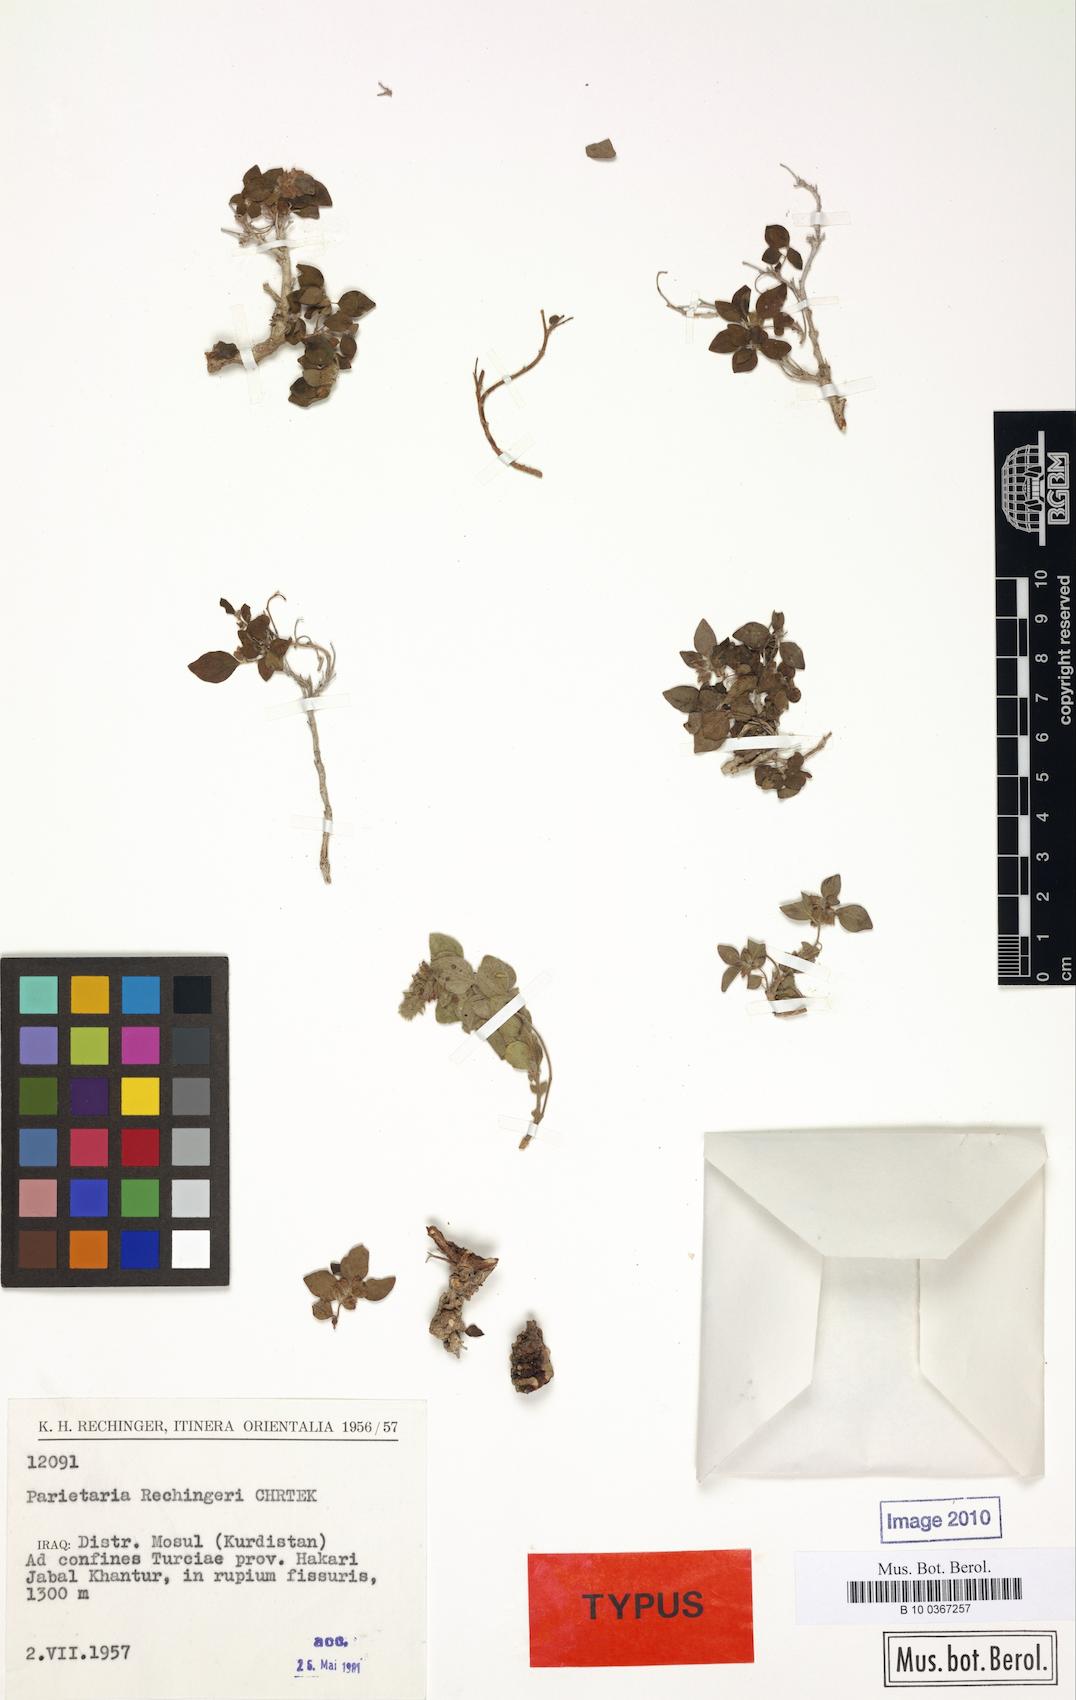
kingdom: Plantae
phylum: Tracheophyta
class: Magnoliopsida
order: Rosales
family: Urticaceae
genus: Parietaria
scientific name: Parietaria rechingeri
